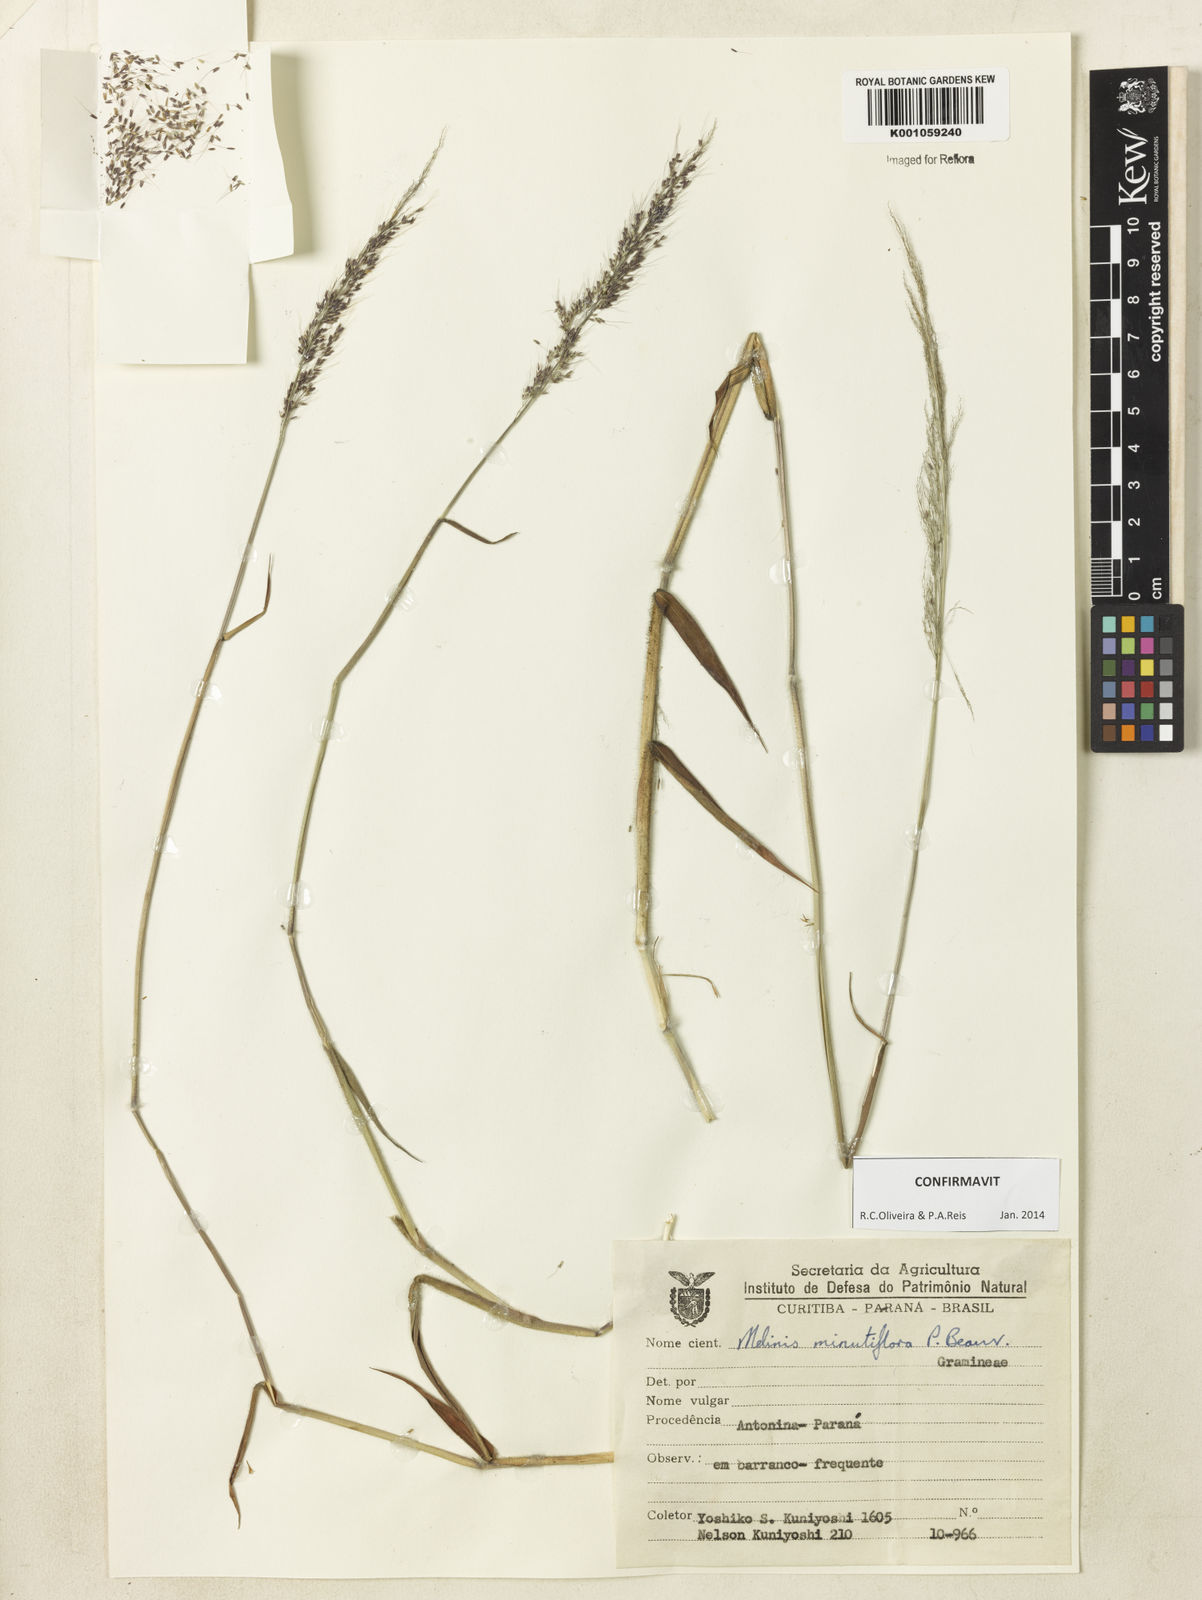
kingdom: Plantae
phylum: Tracheophyta
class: Liliopsida
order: Poales
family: Poaceae
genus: Melinis
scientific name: Melinis minutiflora
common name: Molassesgrass
